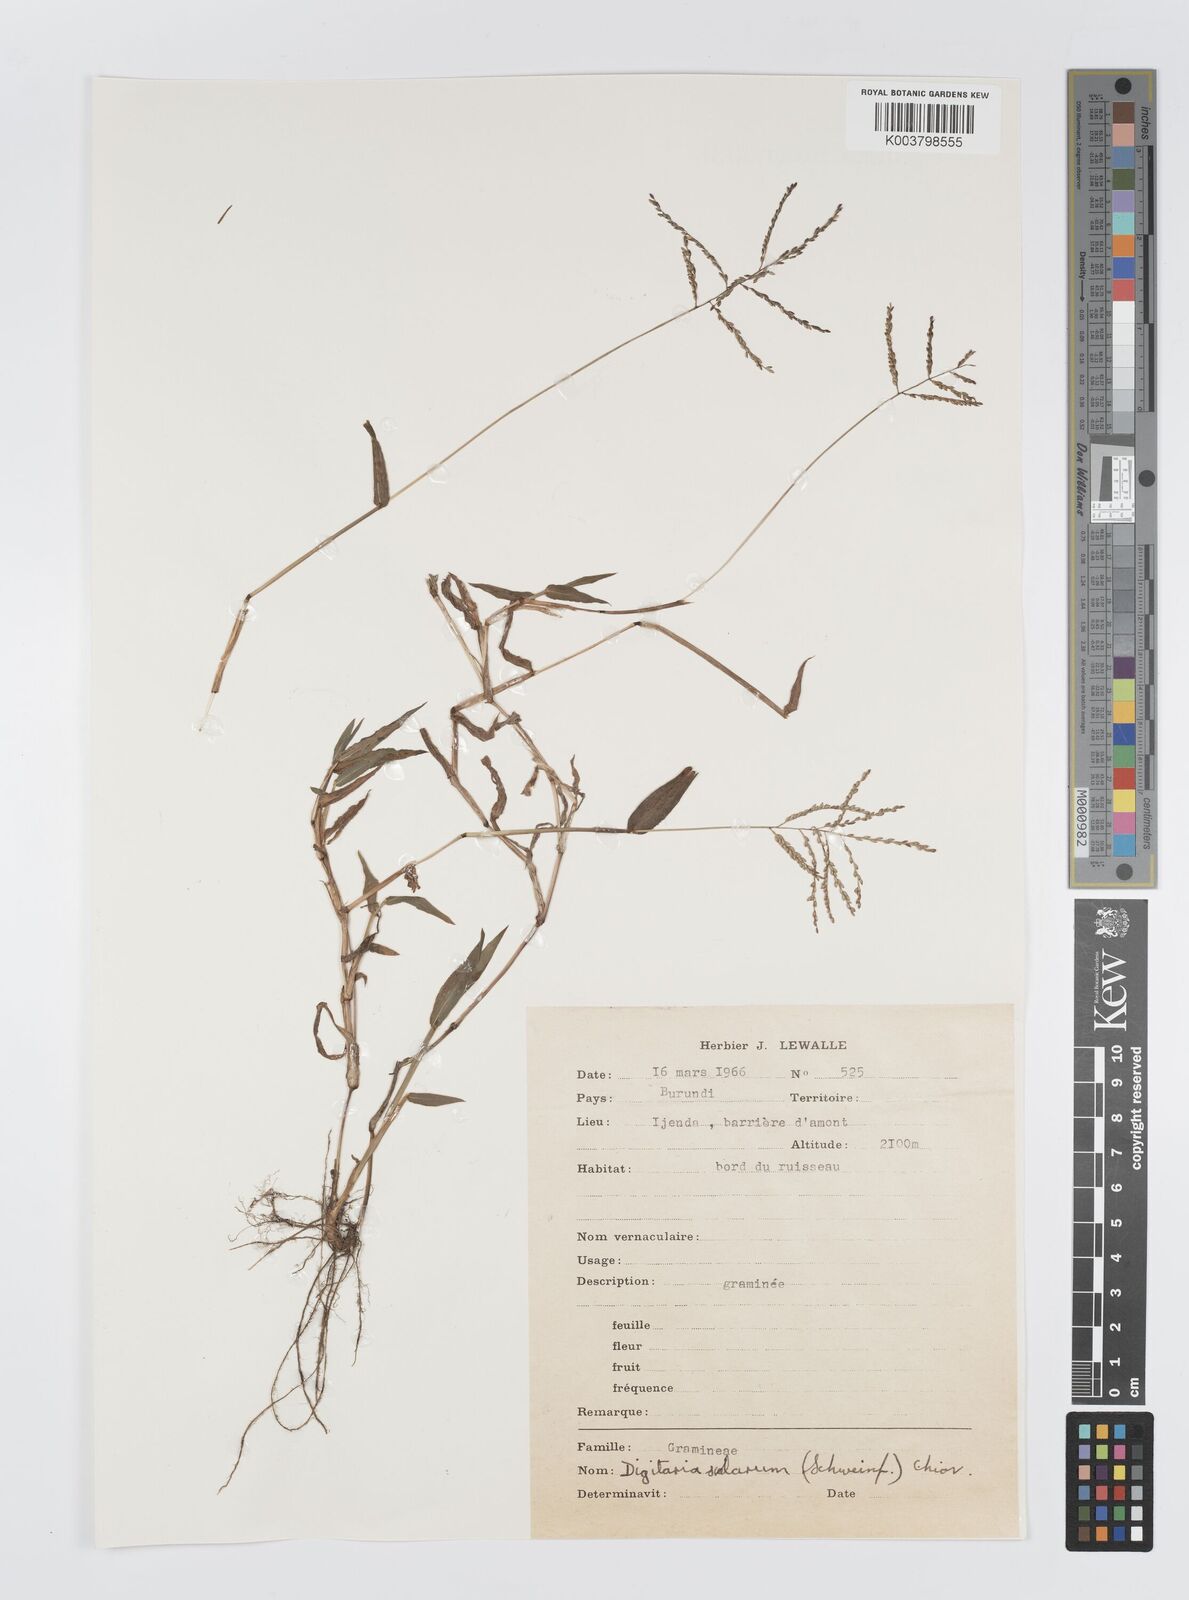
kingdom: Plantae
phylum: Tracheophyta
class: Liliopsida
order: Poales
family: Poaceae
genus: Digitaria
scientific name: Digitaria abyssinica
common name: African couchgrass
